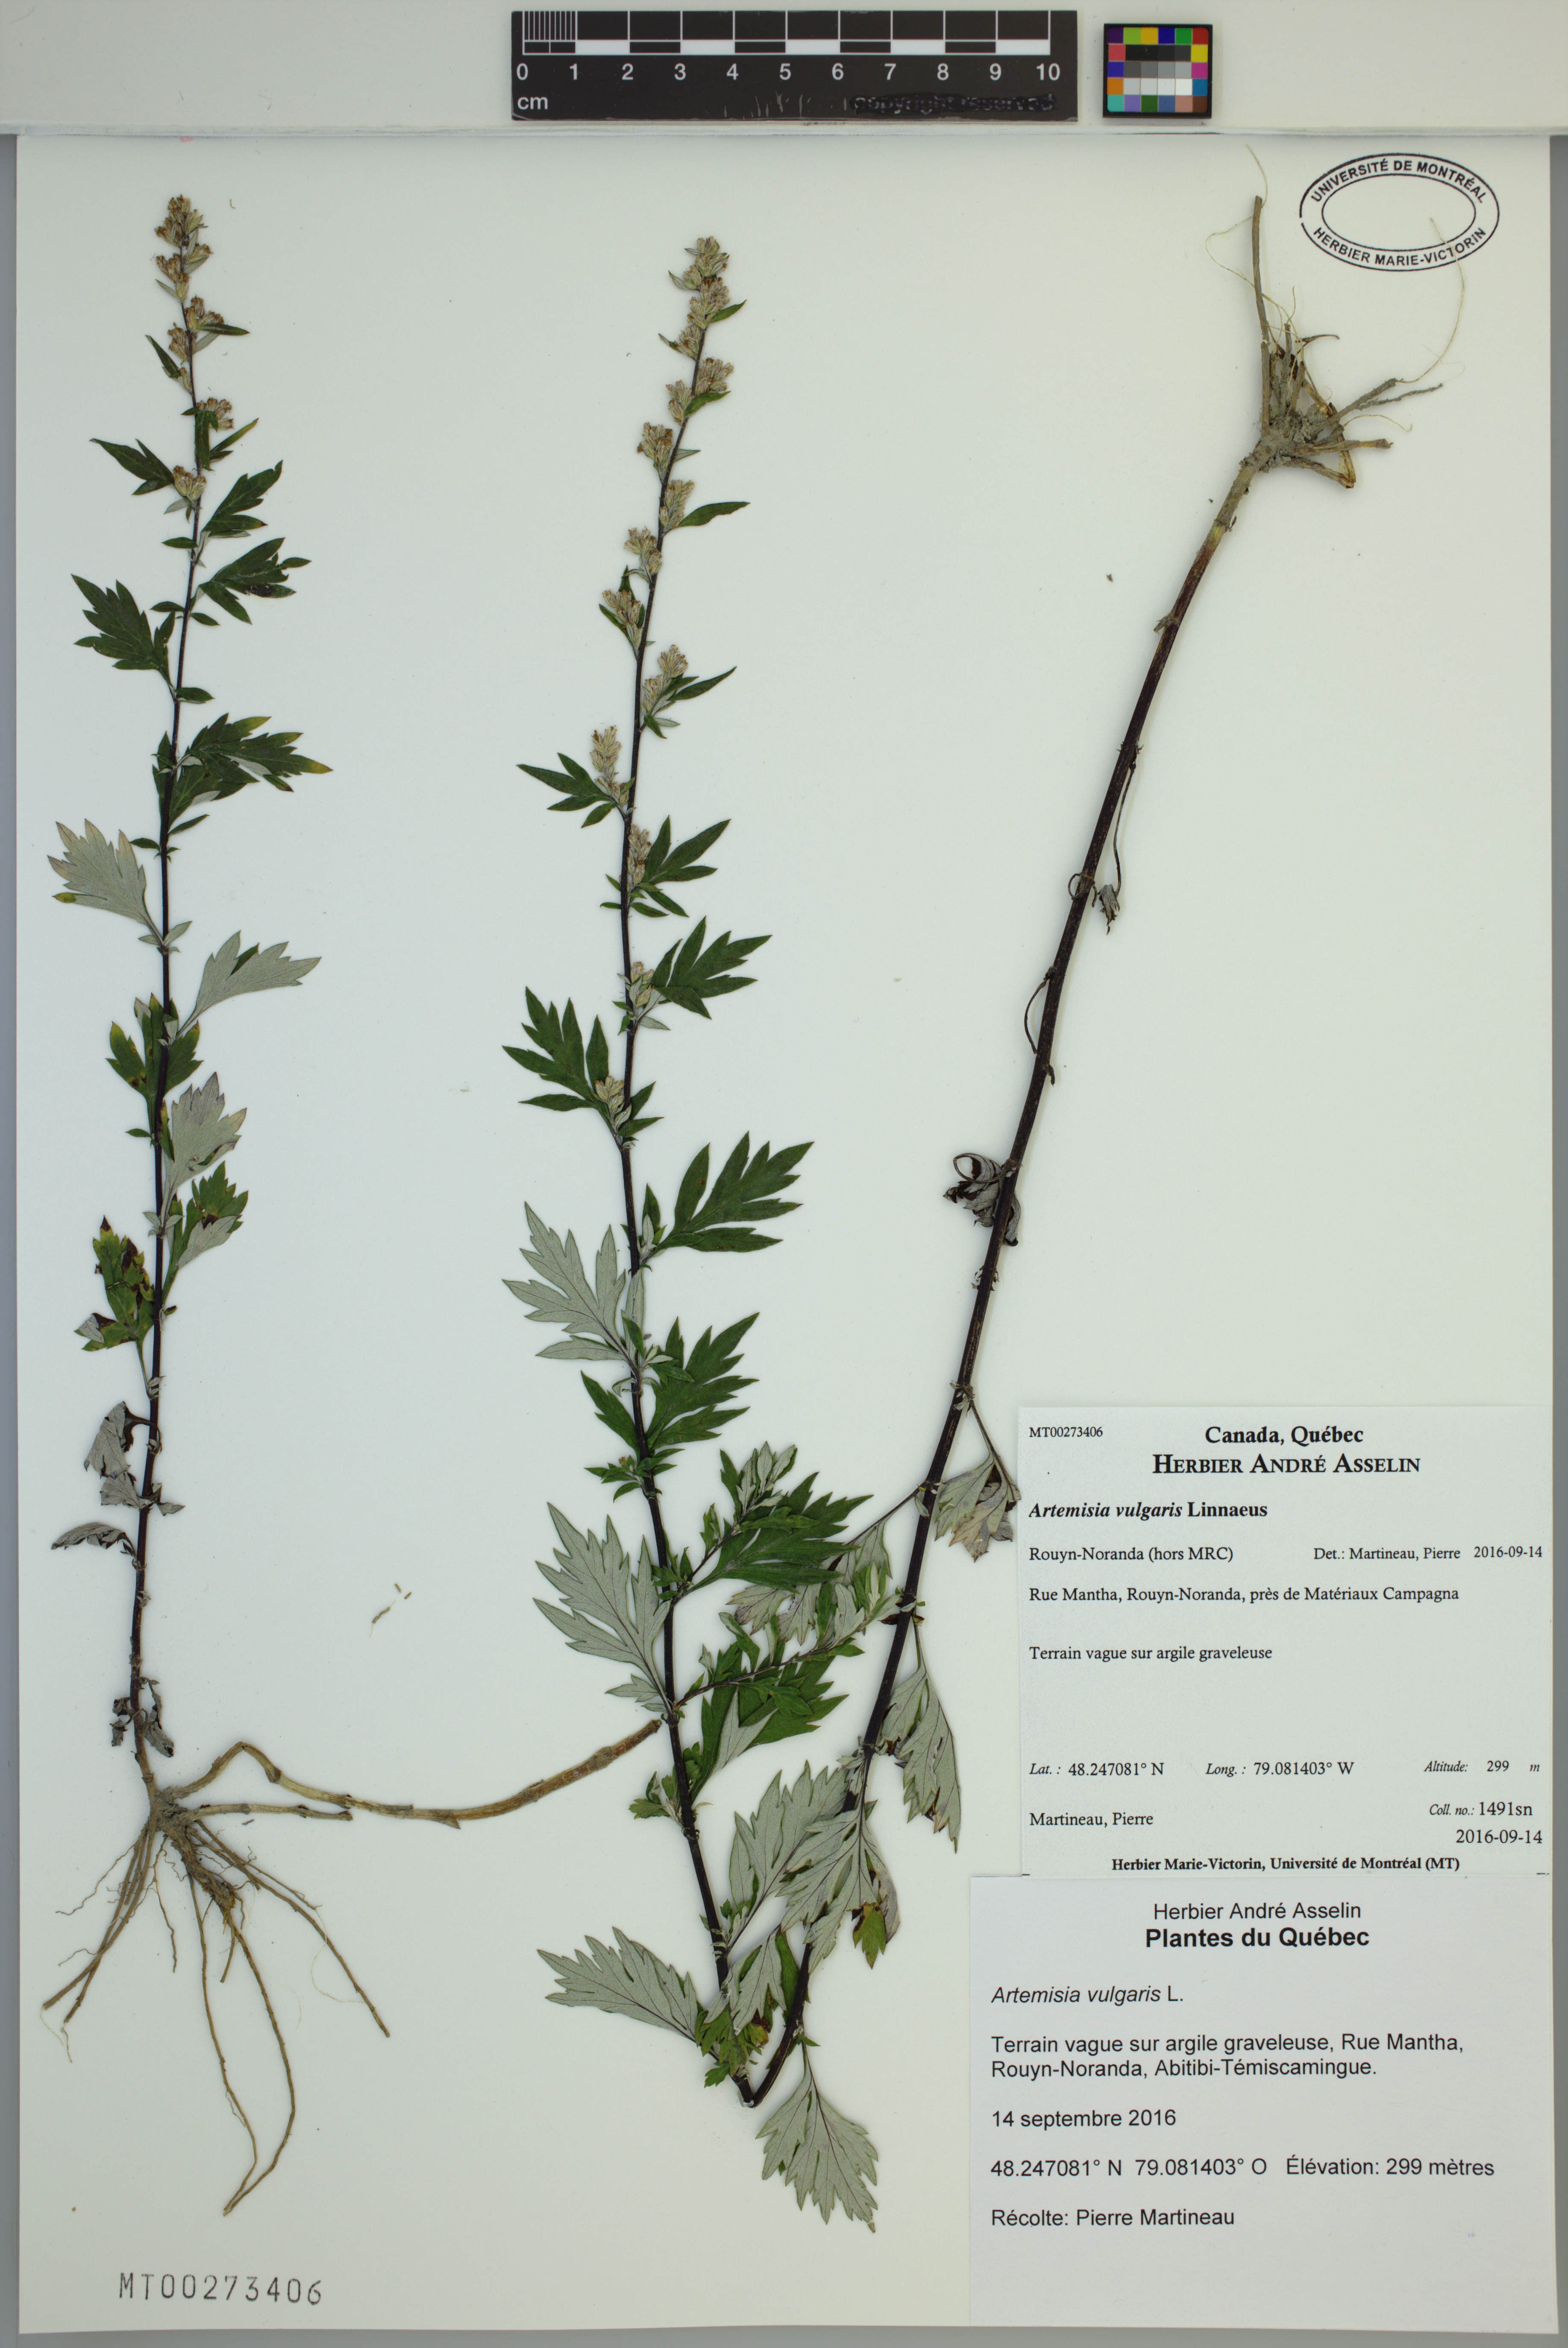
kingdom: Plantae
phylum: Tracheophyta
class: Magnoliopsida
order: Asterales
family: Asteraceae
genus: Artemisia
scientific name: Artemisia vulgaris
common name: Mugwort
